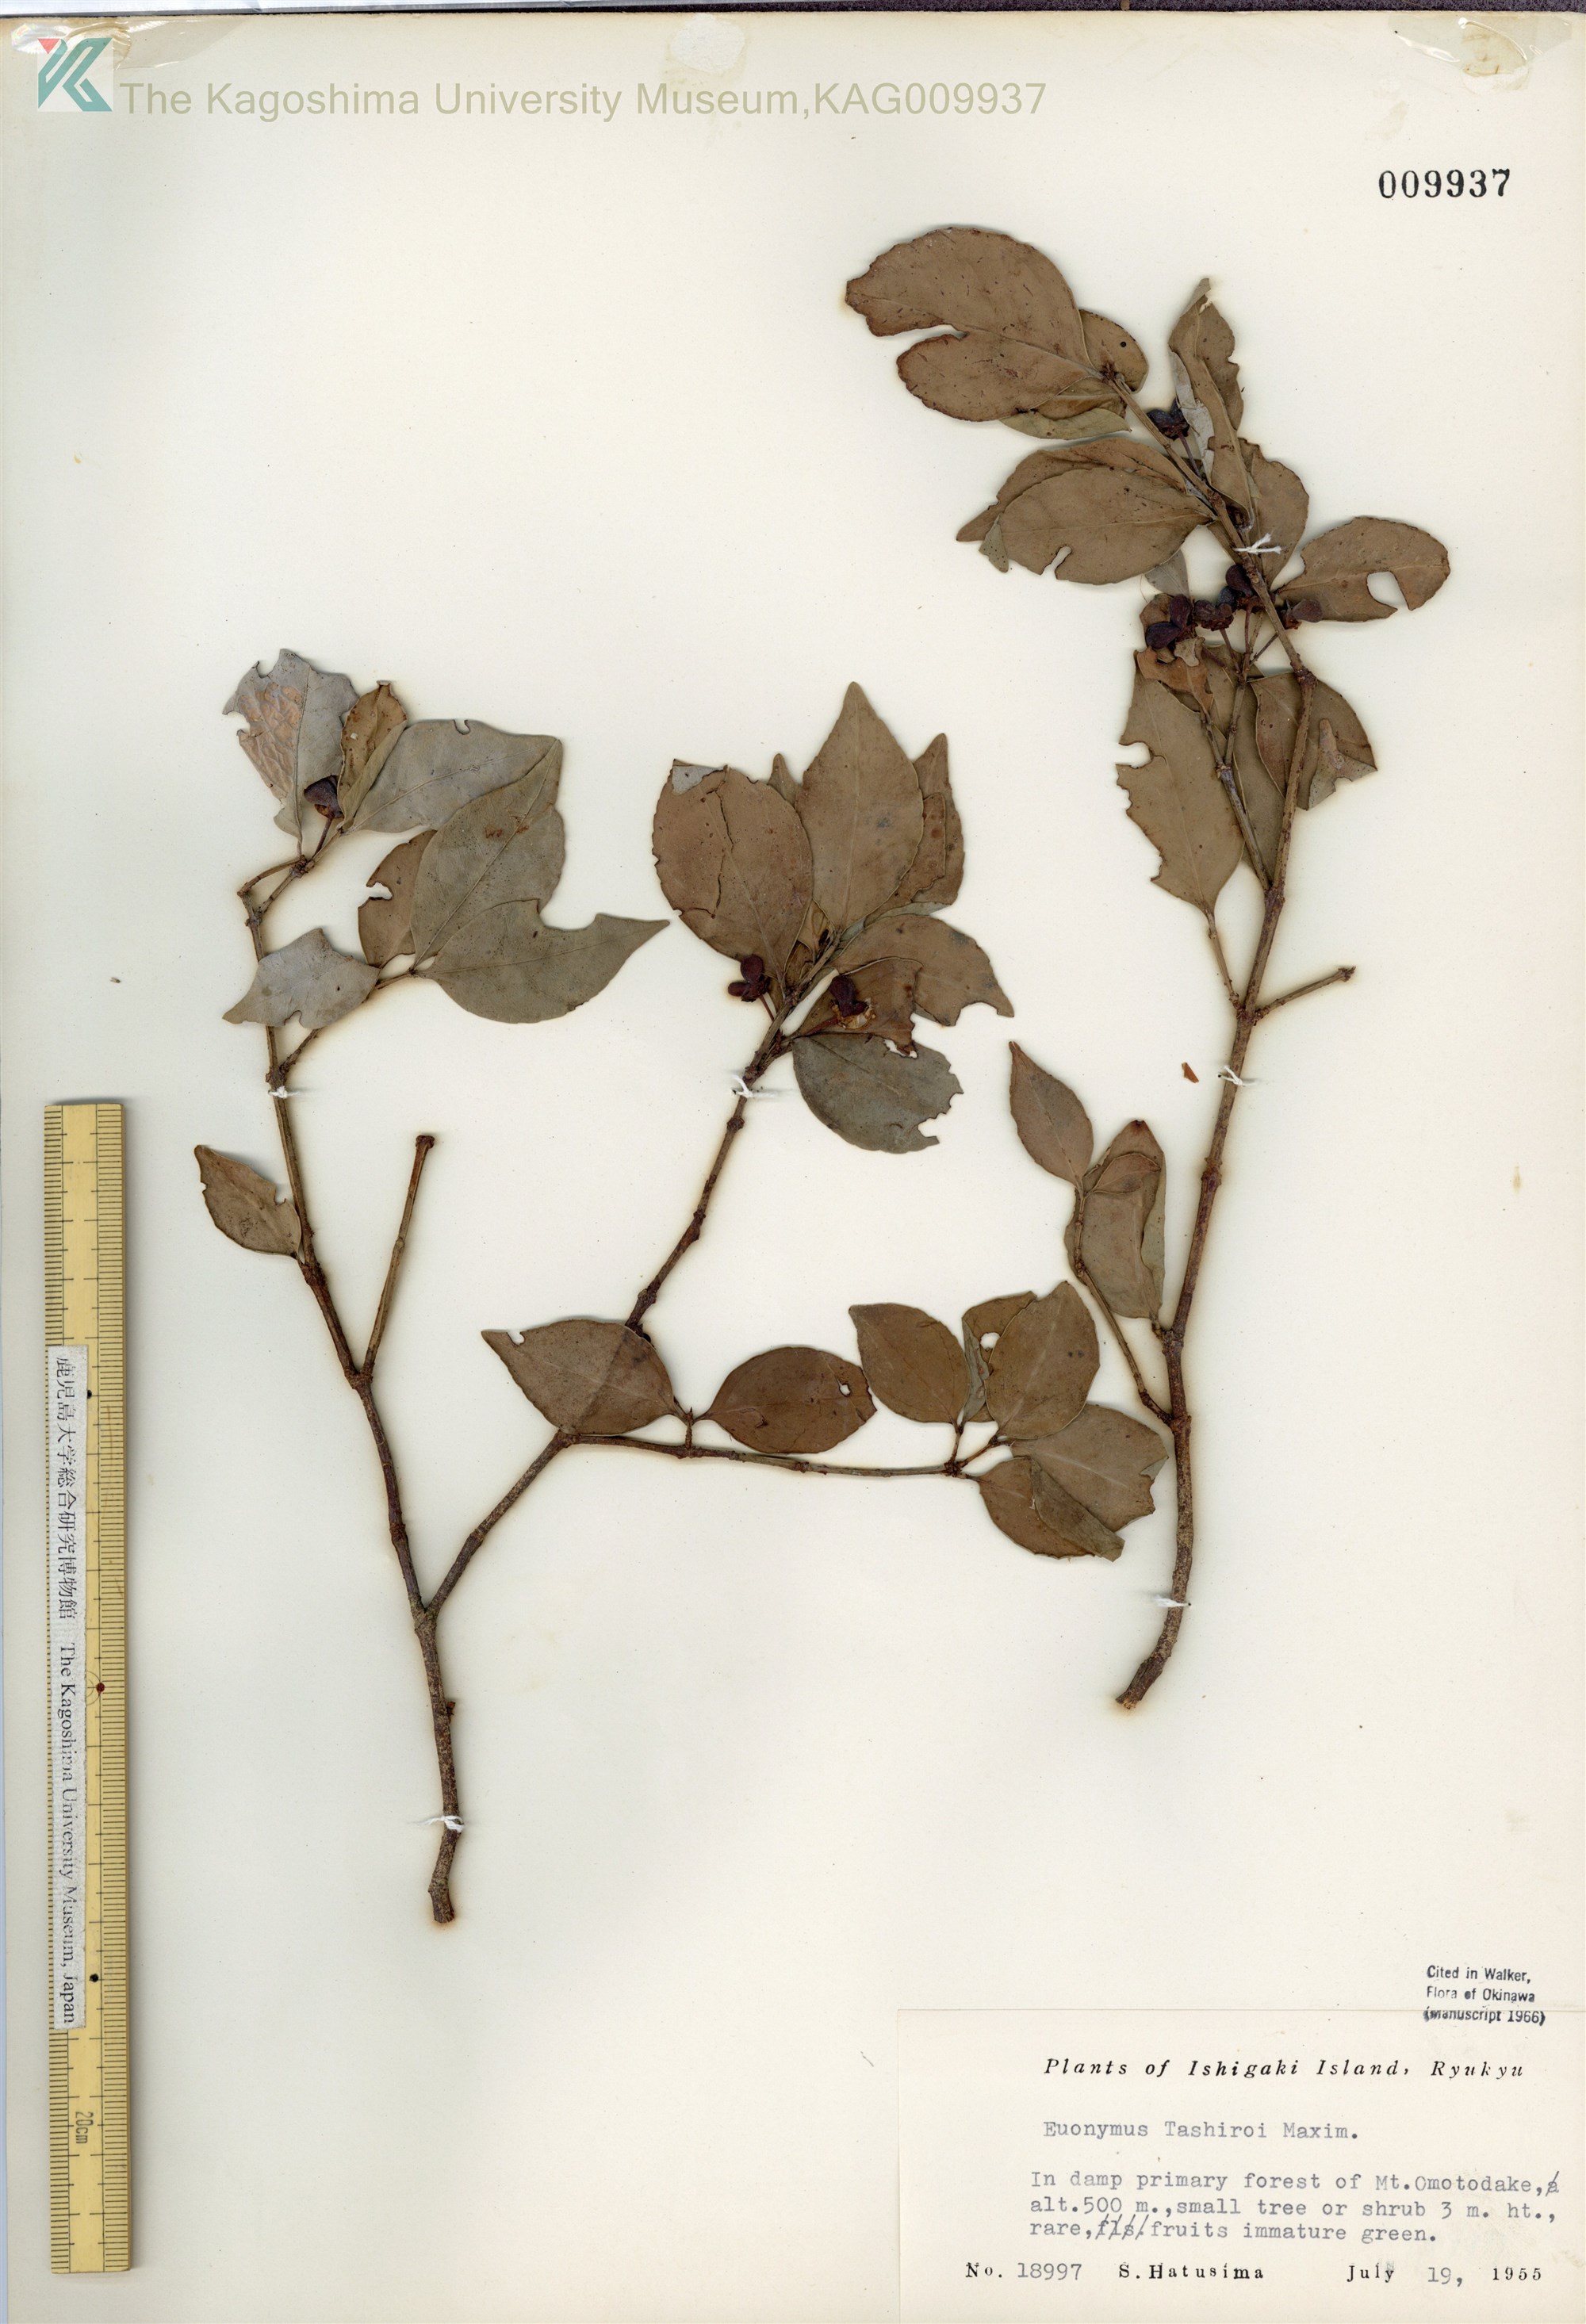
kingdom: Plantae
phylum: Tracheophyta
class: Magnoliopsida
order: Celastrales
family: Celastraceae
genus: Euonymus
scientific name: Euonymus tashiroi
